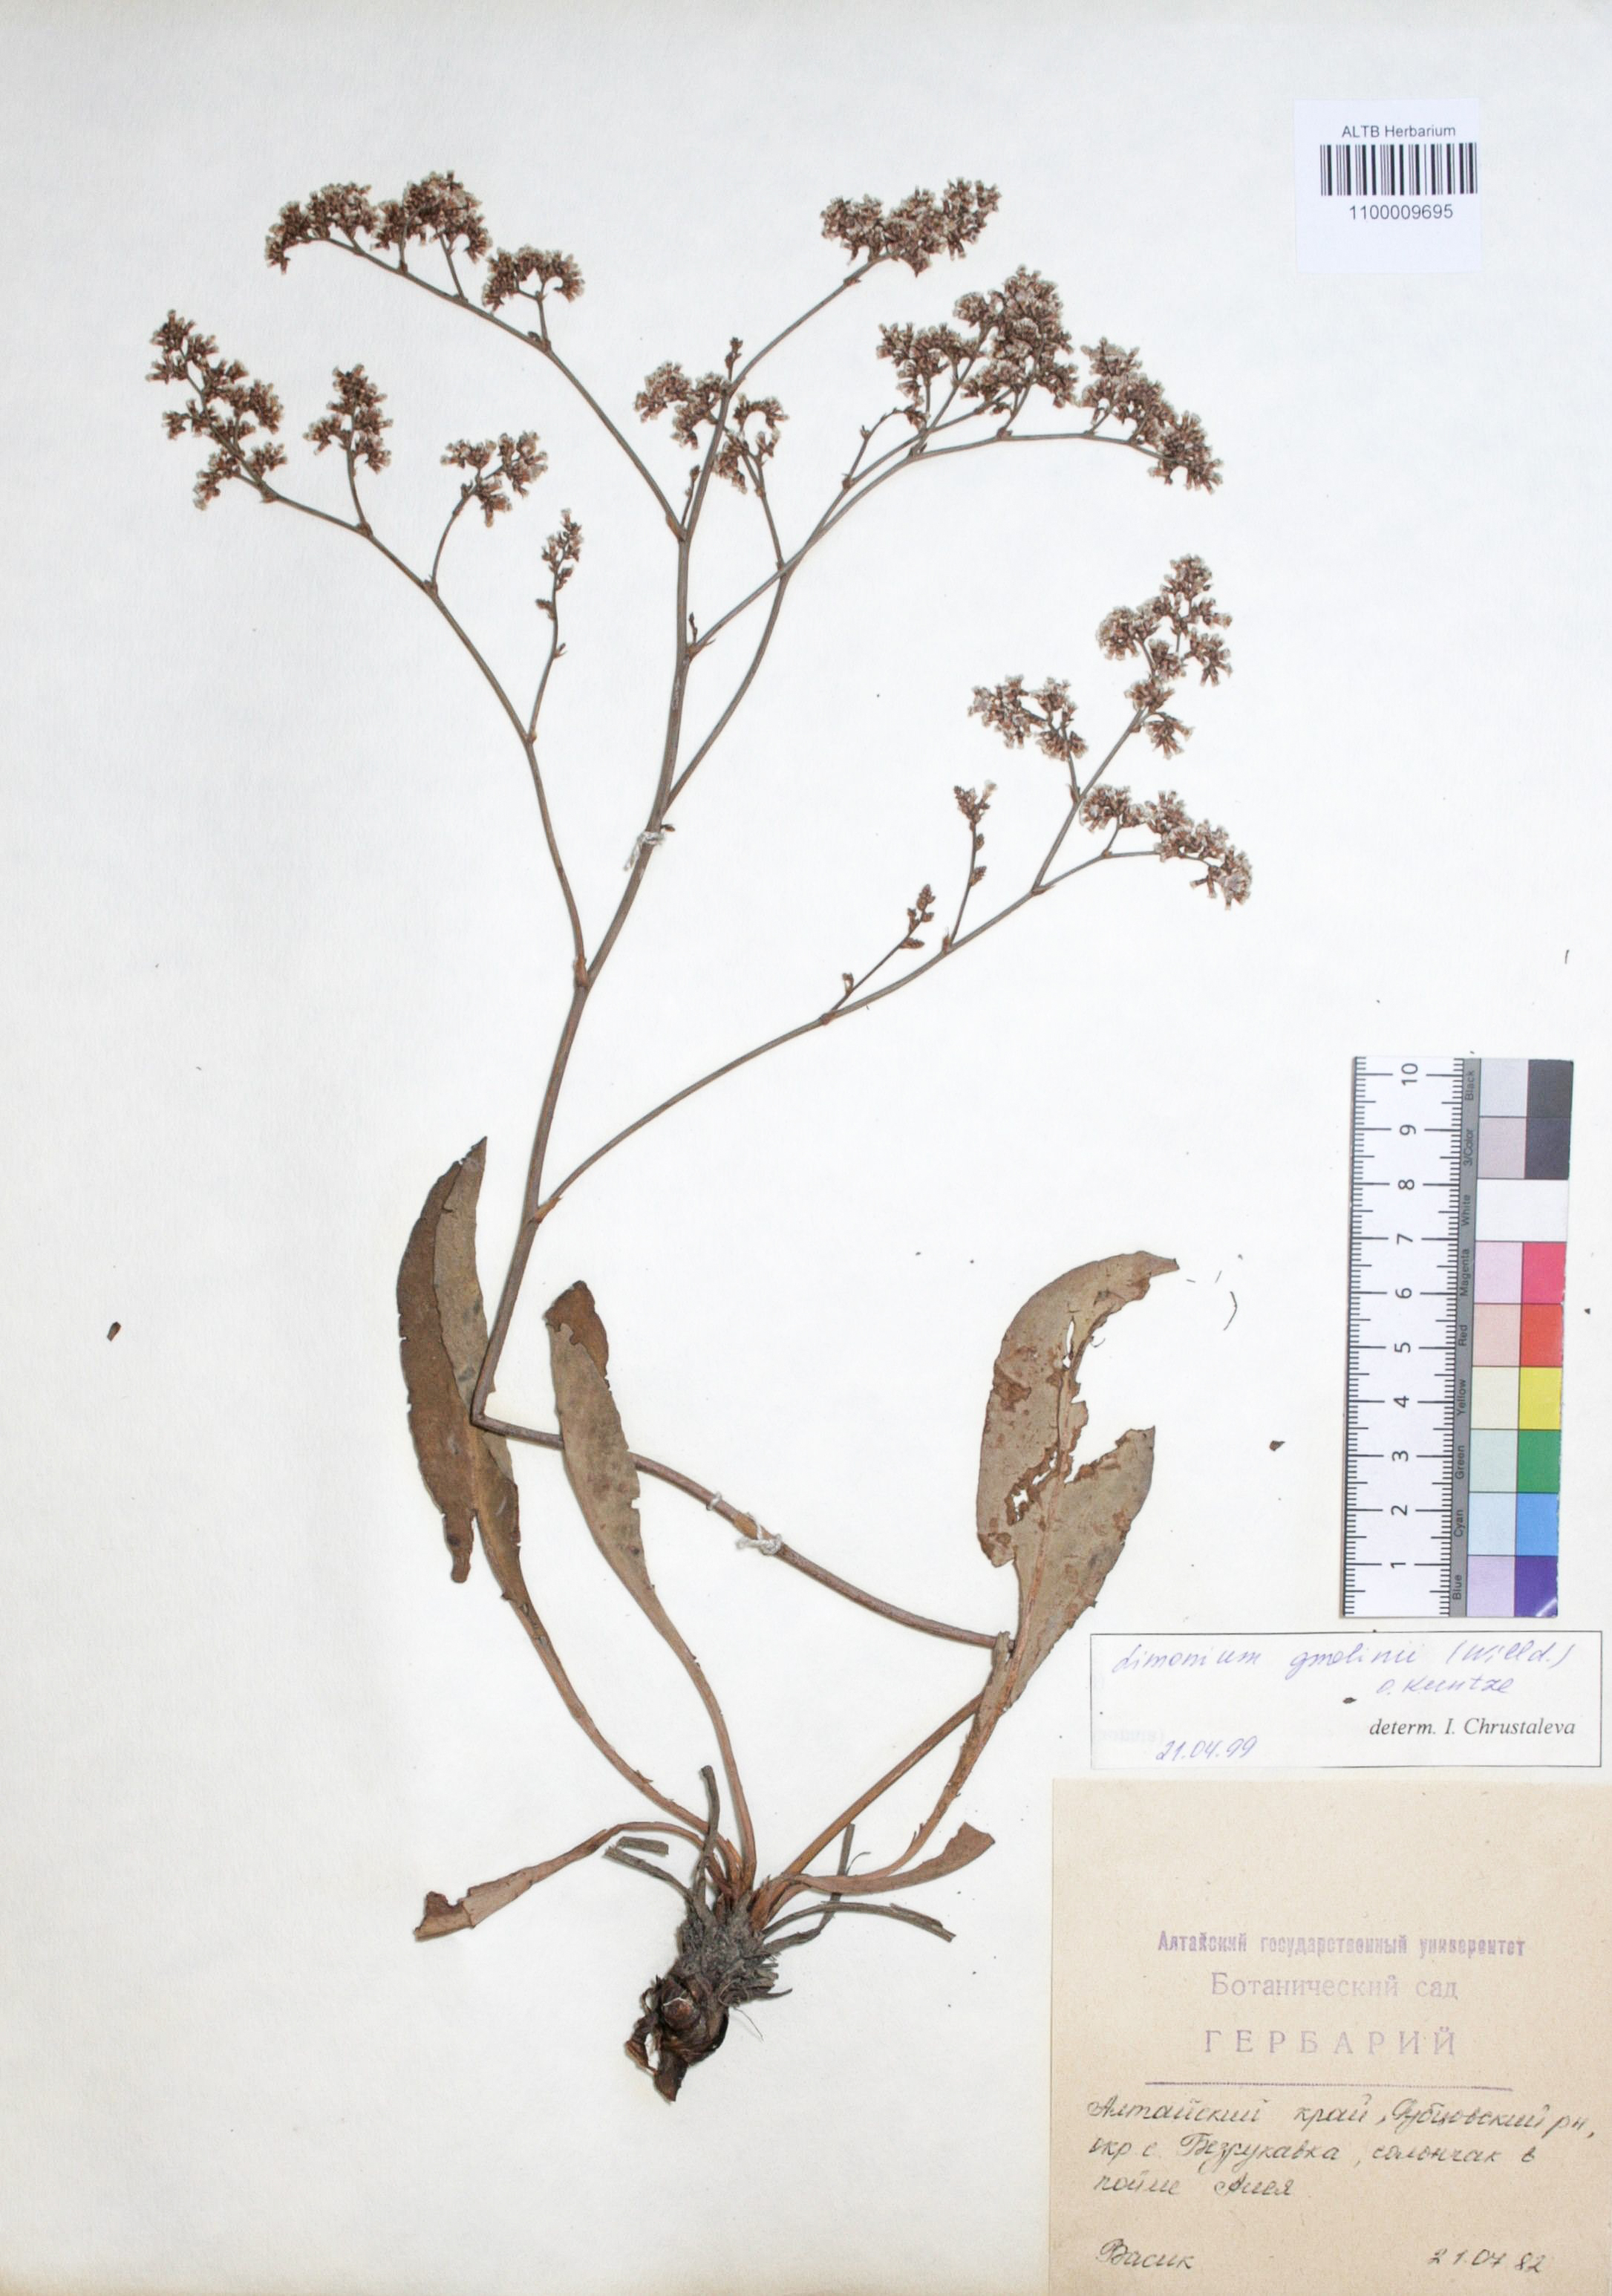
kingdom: Plantae
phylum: Tracheophyta
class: Magnoliopsida
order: Caryophyllales
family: Plumbaginaceae
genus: Limonium
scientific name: Limonium gmelini
